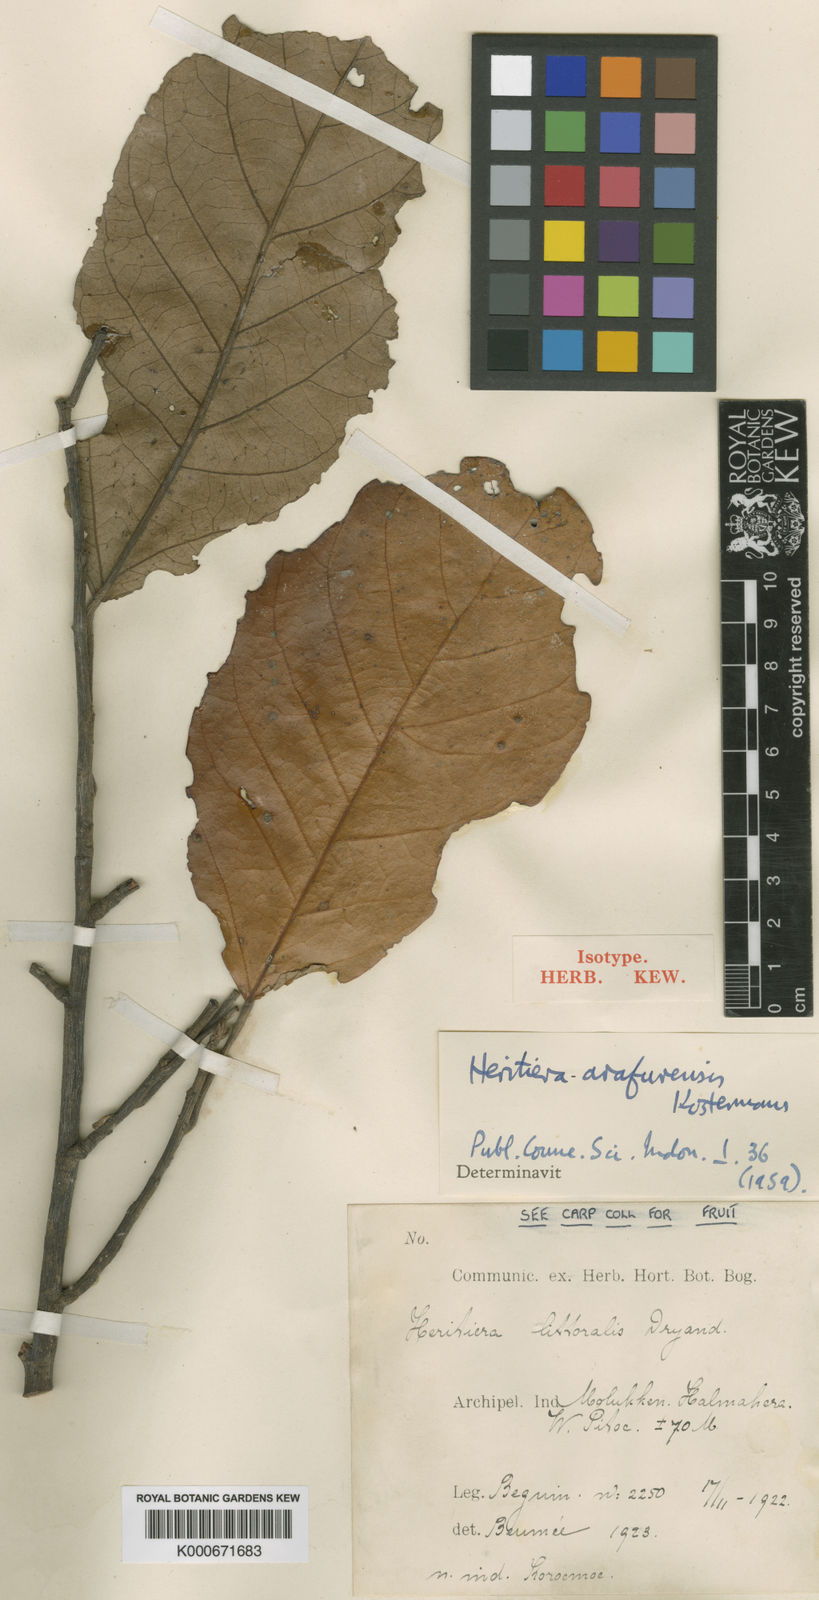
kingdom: Plantae
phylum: Tracheophyta
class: Magnoliopsida
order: Malvales
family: Malvaceae
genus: Heritiera
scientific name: Heritiera arafurensis
